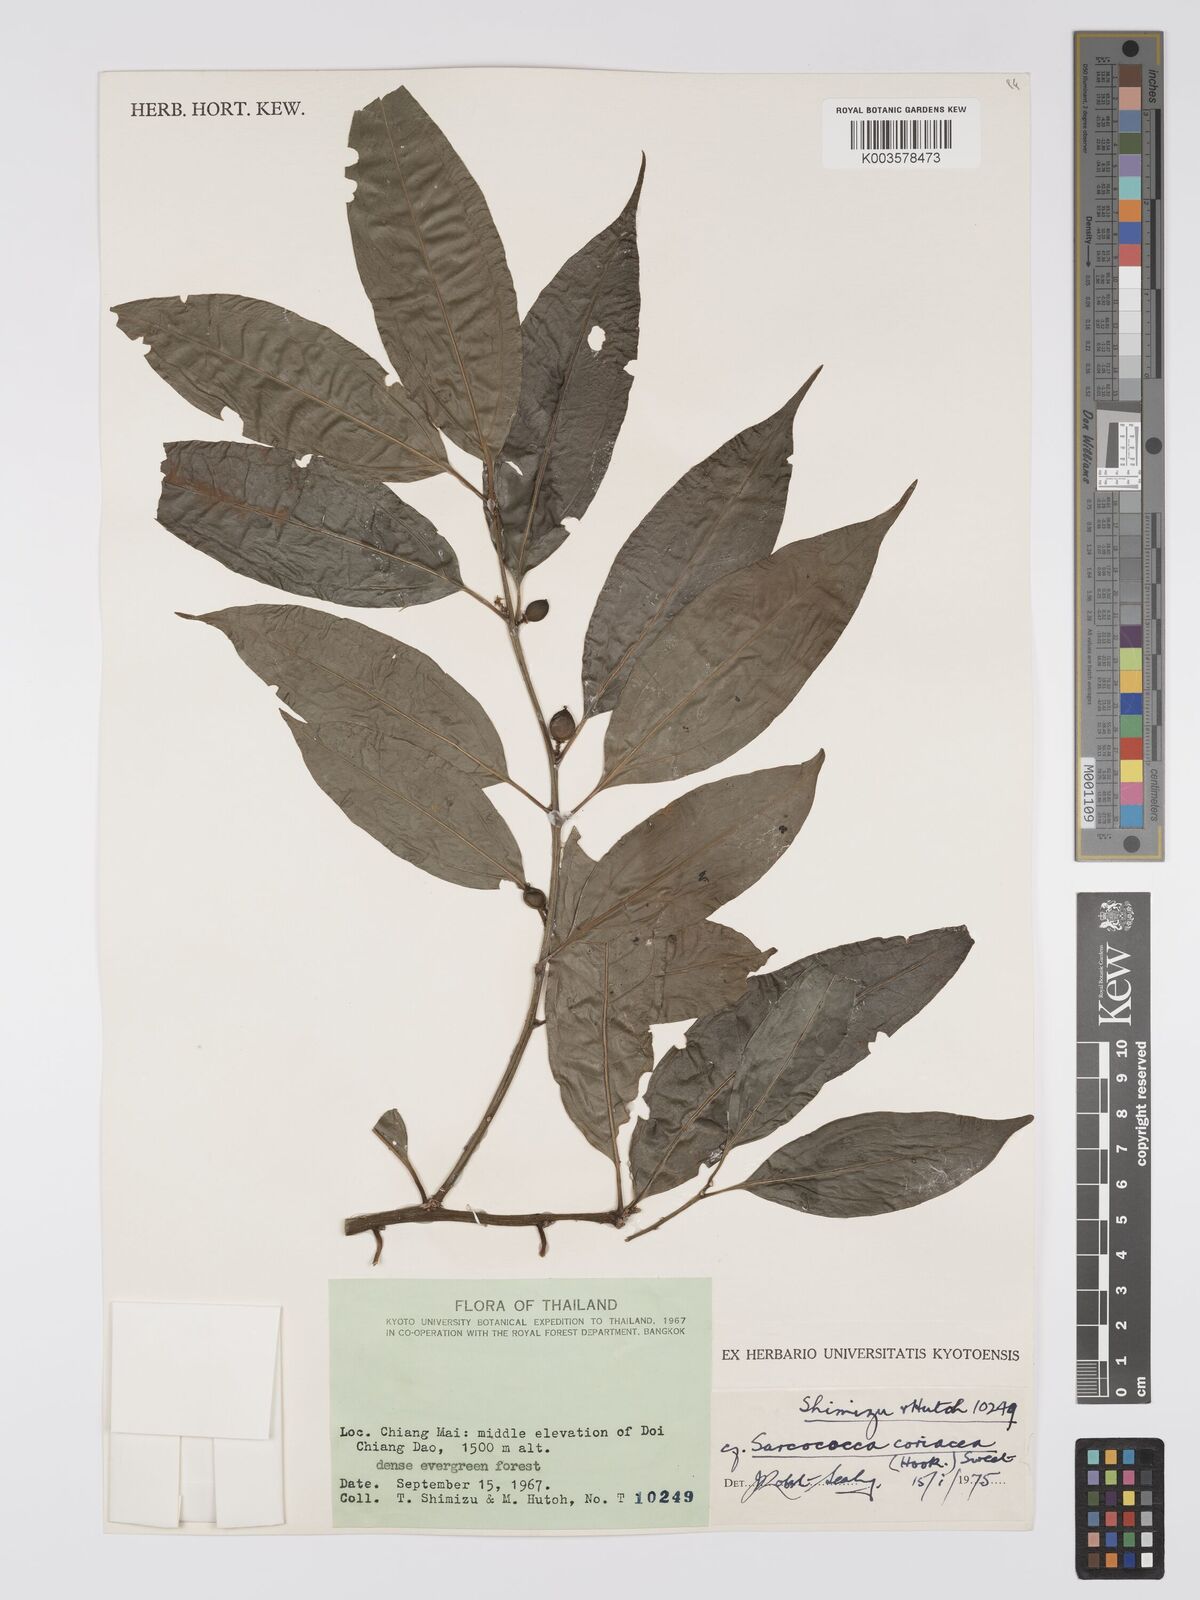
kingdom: Plantae
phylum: Tracheophyta
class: Magnoliopsida
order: Buxales
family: Buxaceae
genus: Sarcococca
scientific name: Sarcococca coriacea
